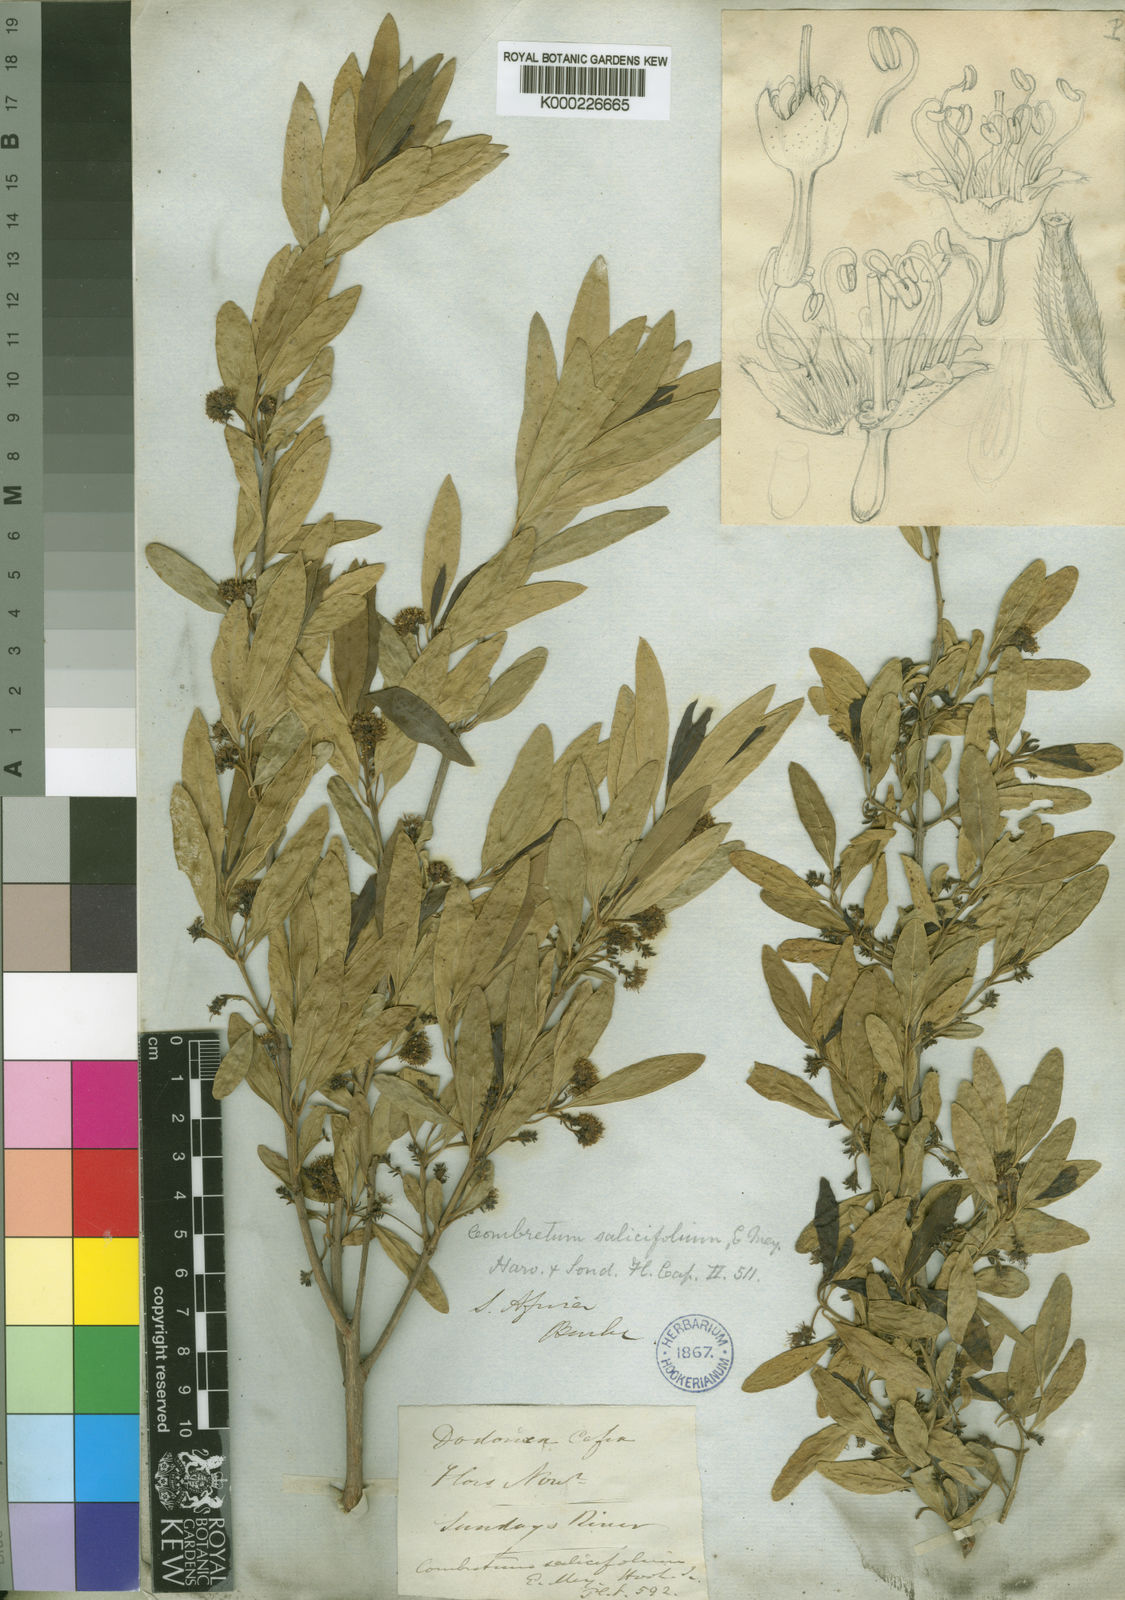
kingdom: Plantae
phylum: Tracheophyta
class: Magnoliopsida
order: Myrtales
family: Combretaceae
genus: Combretum
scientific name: Combretum caffrum
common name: Cape bushwillow
